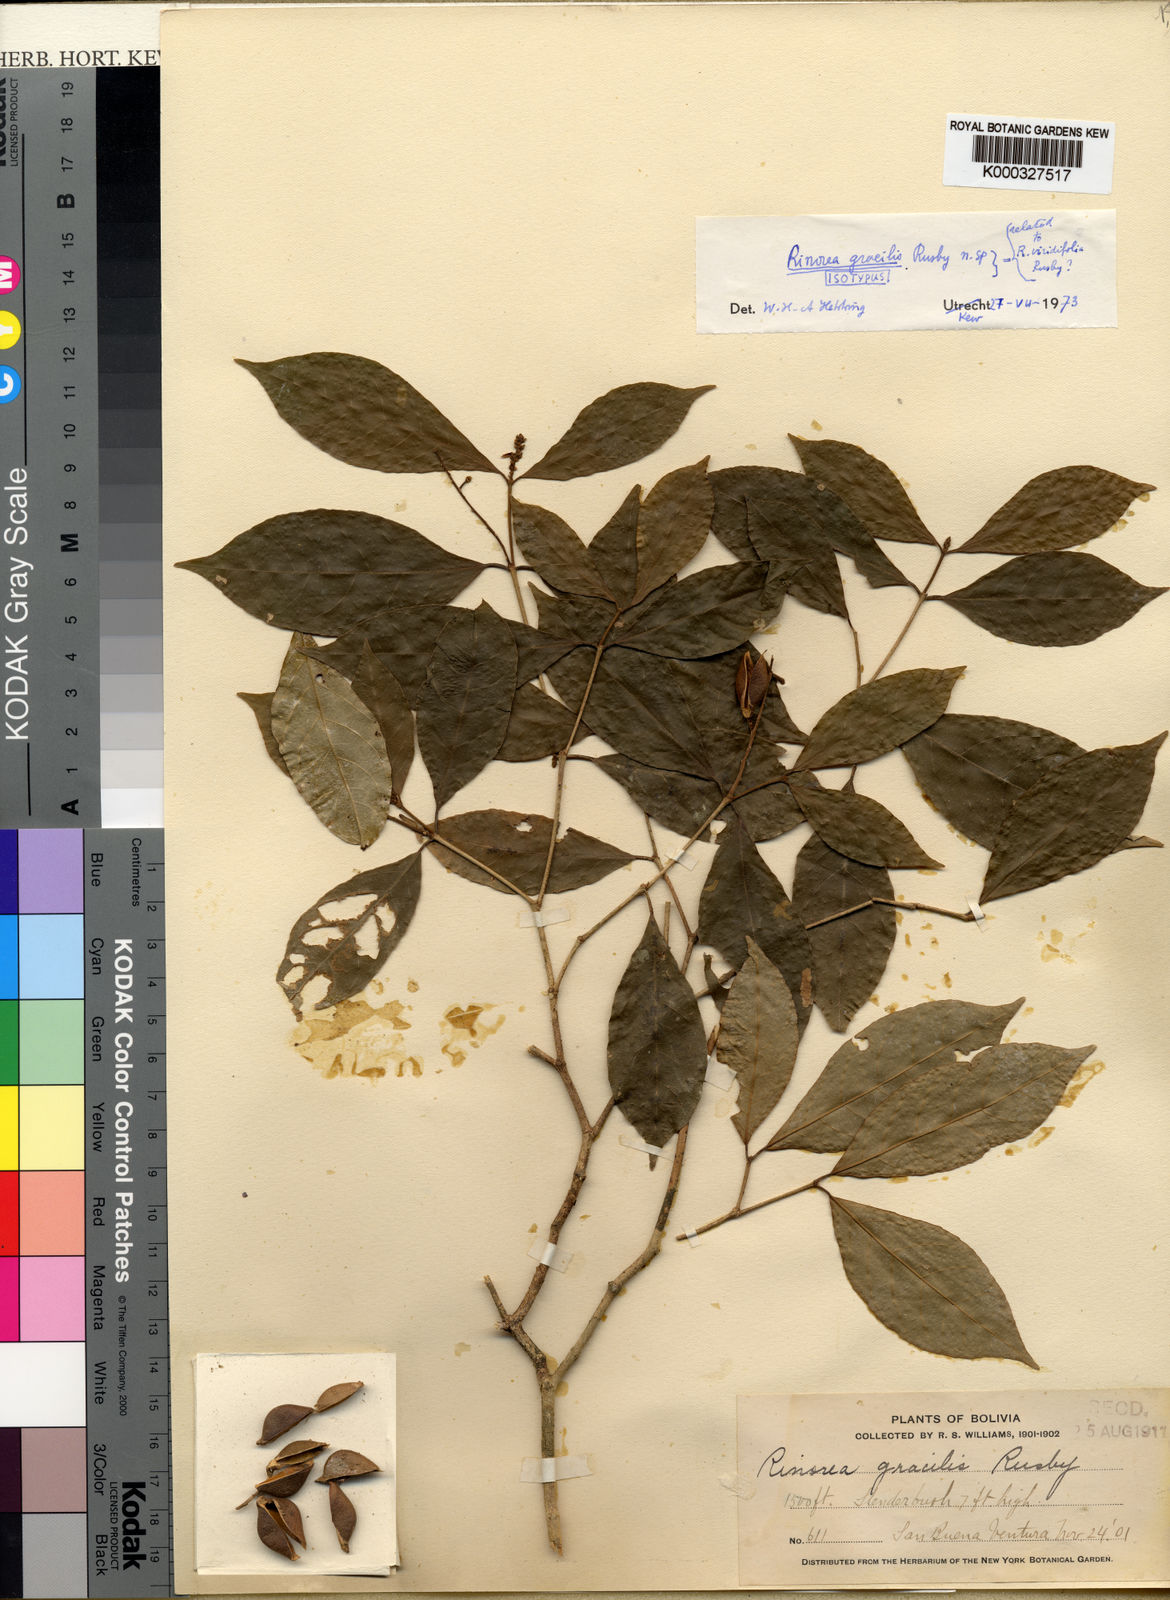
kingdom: Plantae
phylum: Tracheophyta
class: Magnoliopsida
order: Malpighiales
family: Violaceae
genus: Rinorea
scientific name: Rinorea viridifolia
